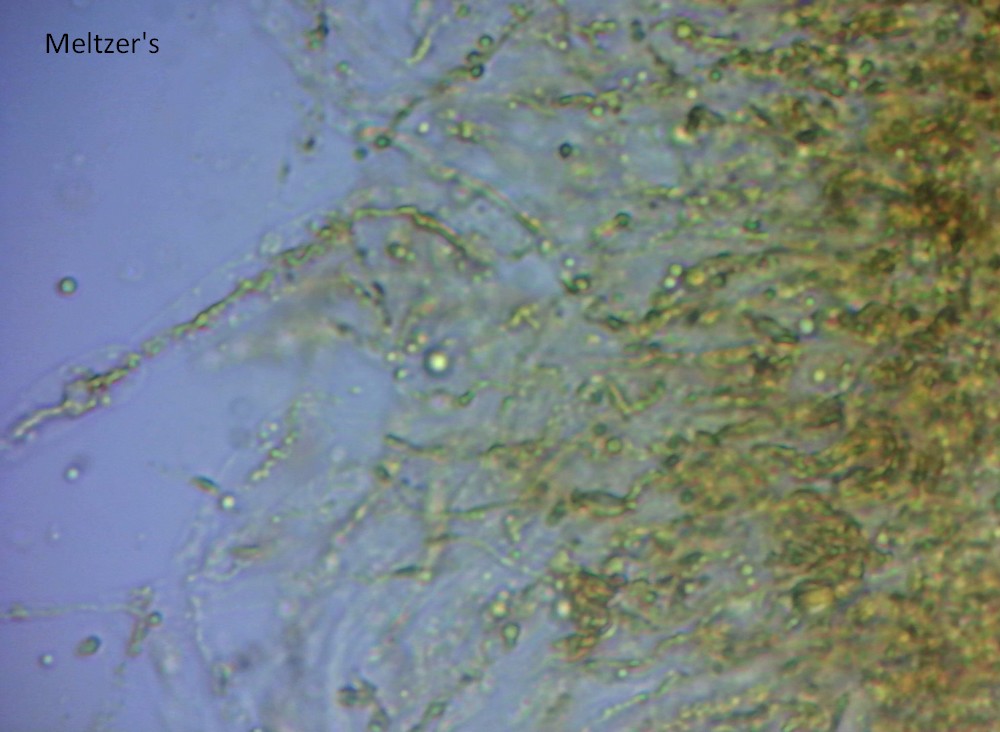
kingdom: Fungi
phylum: Ascomycota
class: Sordariomycetes
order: Diaporthales
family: Diaporthaceae
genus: Diaporthe
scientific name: Diaporthe arctii
